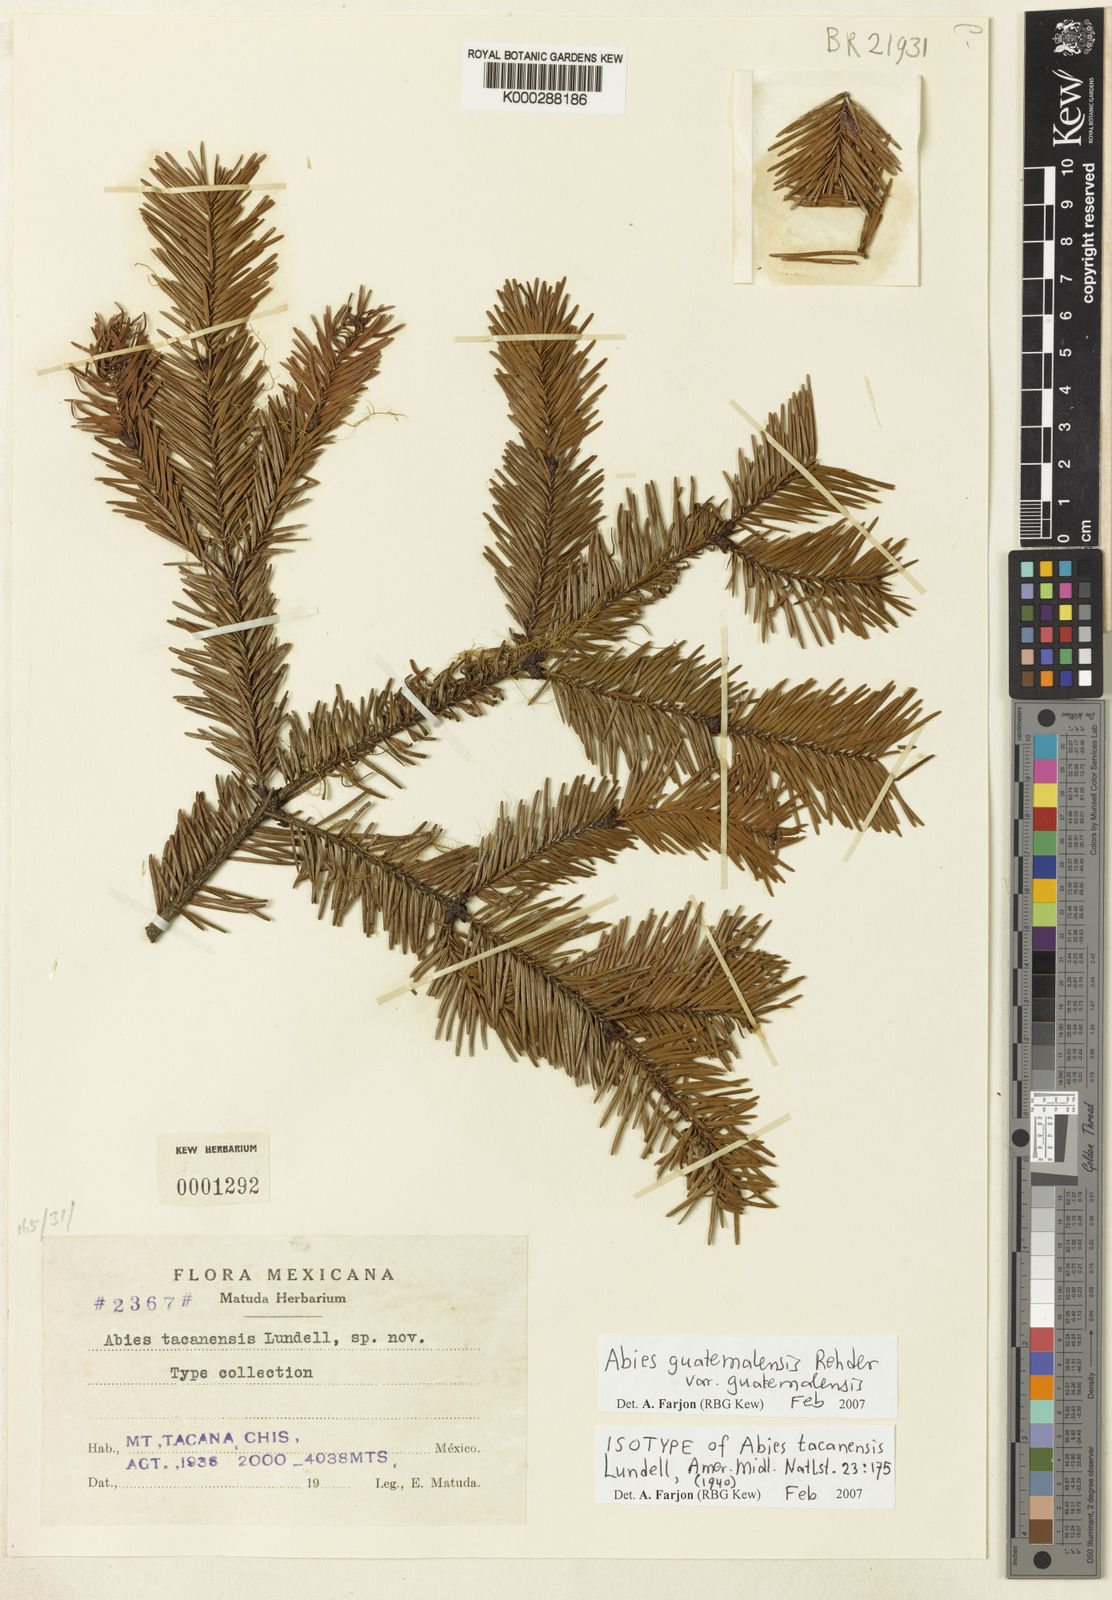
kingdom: Plantae
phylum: Tracheophyta
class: Pinopsida
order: Pinales
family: Pinaceae
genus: Abies
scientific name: Abies guatemalensis
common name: Guatemalan fir
